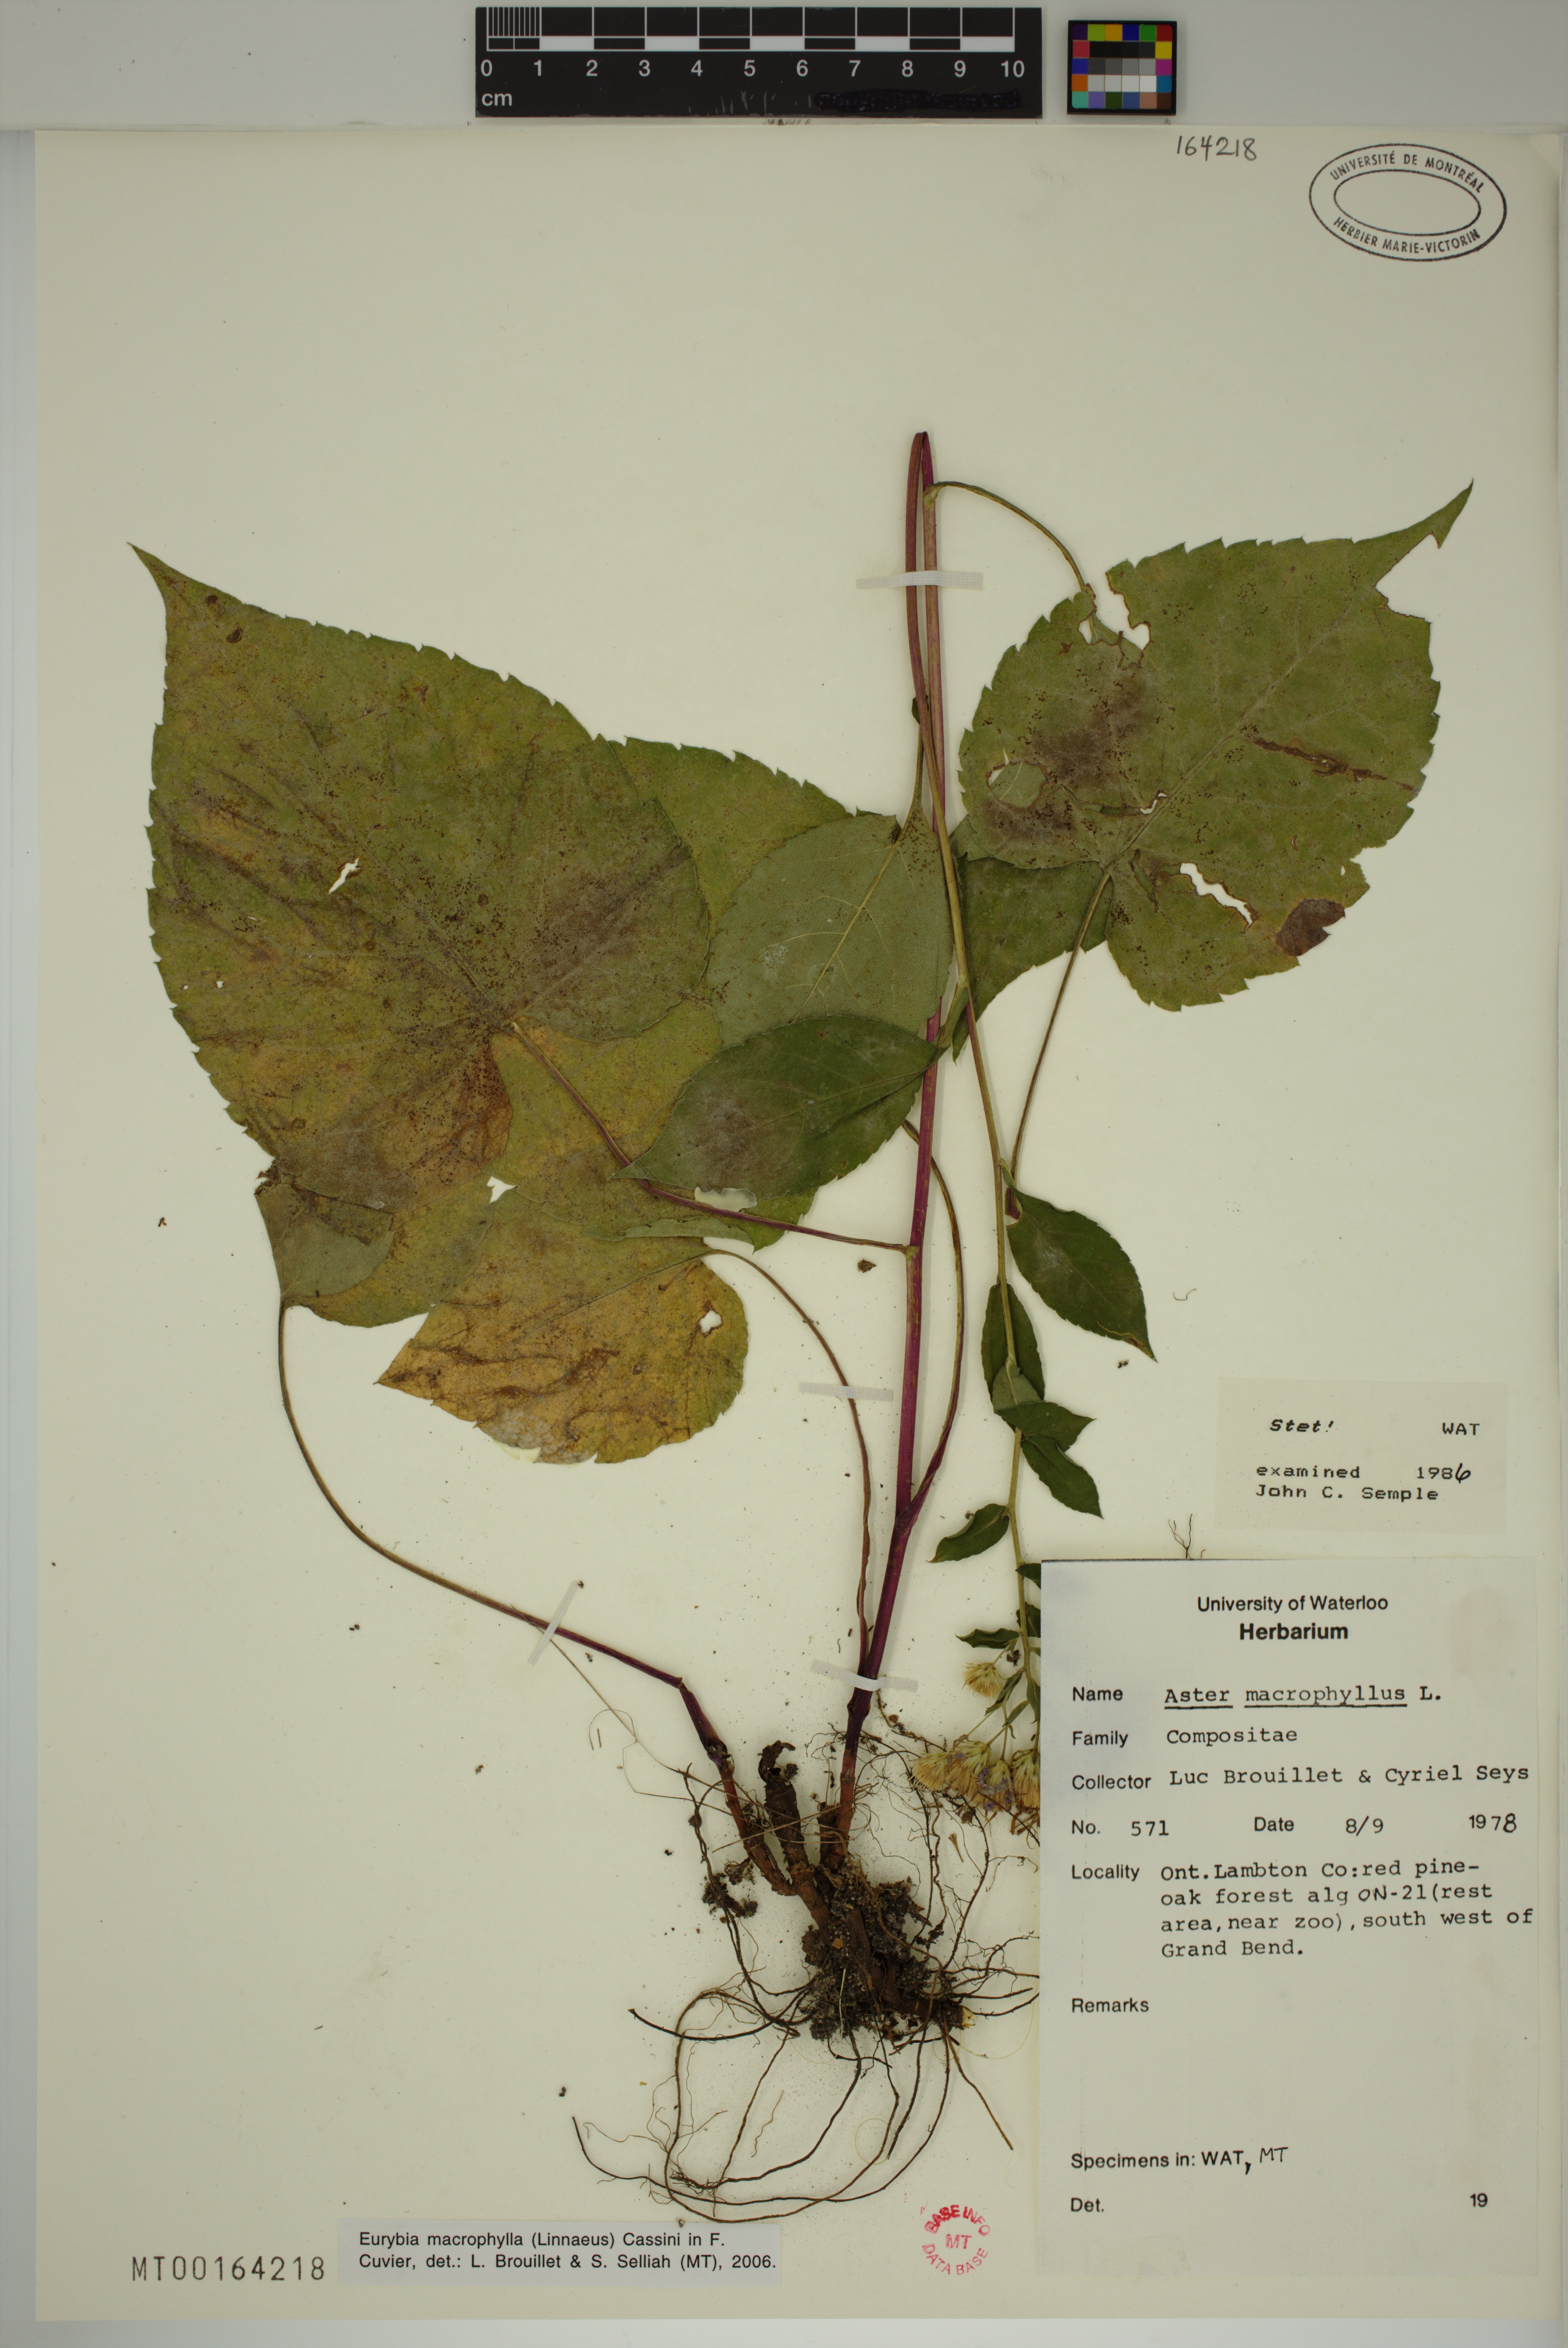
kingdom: Plantae
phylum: Tracheophyta
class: Magnoliopsida
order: Asterales
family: Asteraceae
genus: Eurybia
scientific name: Eurybia macrophylla
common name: Big-leaved aster
